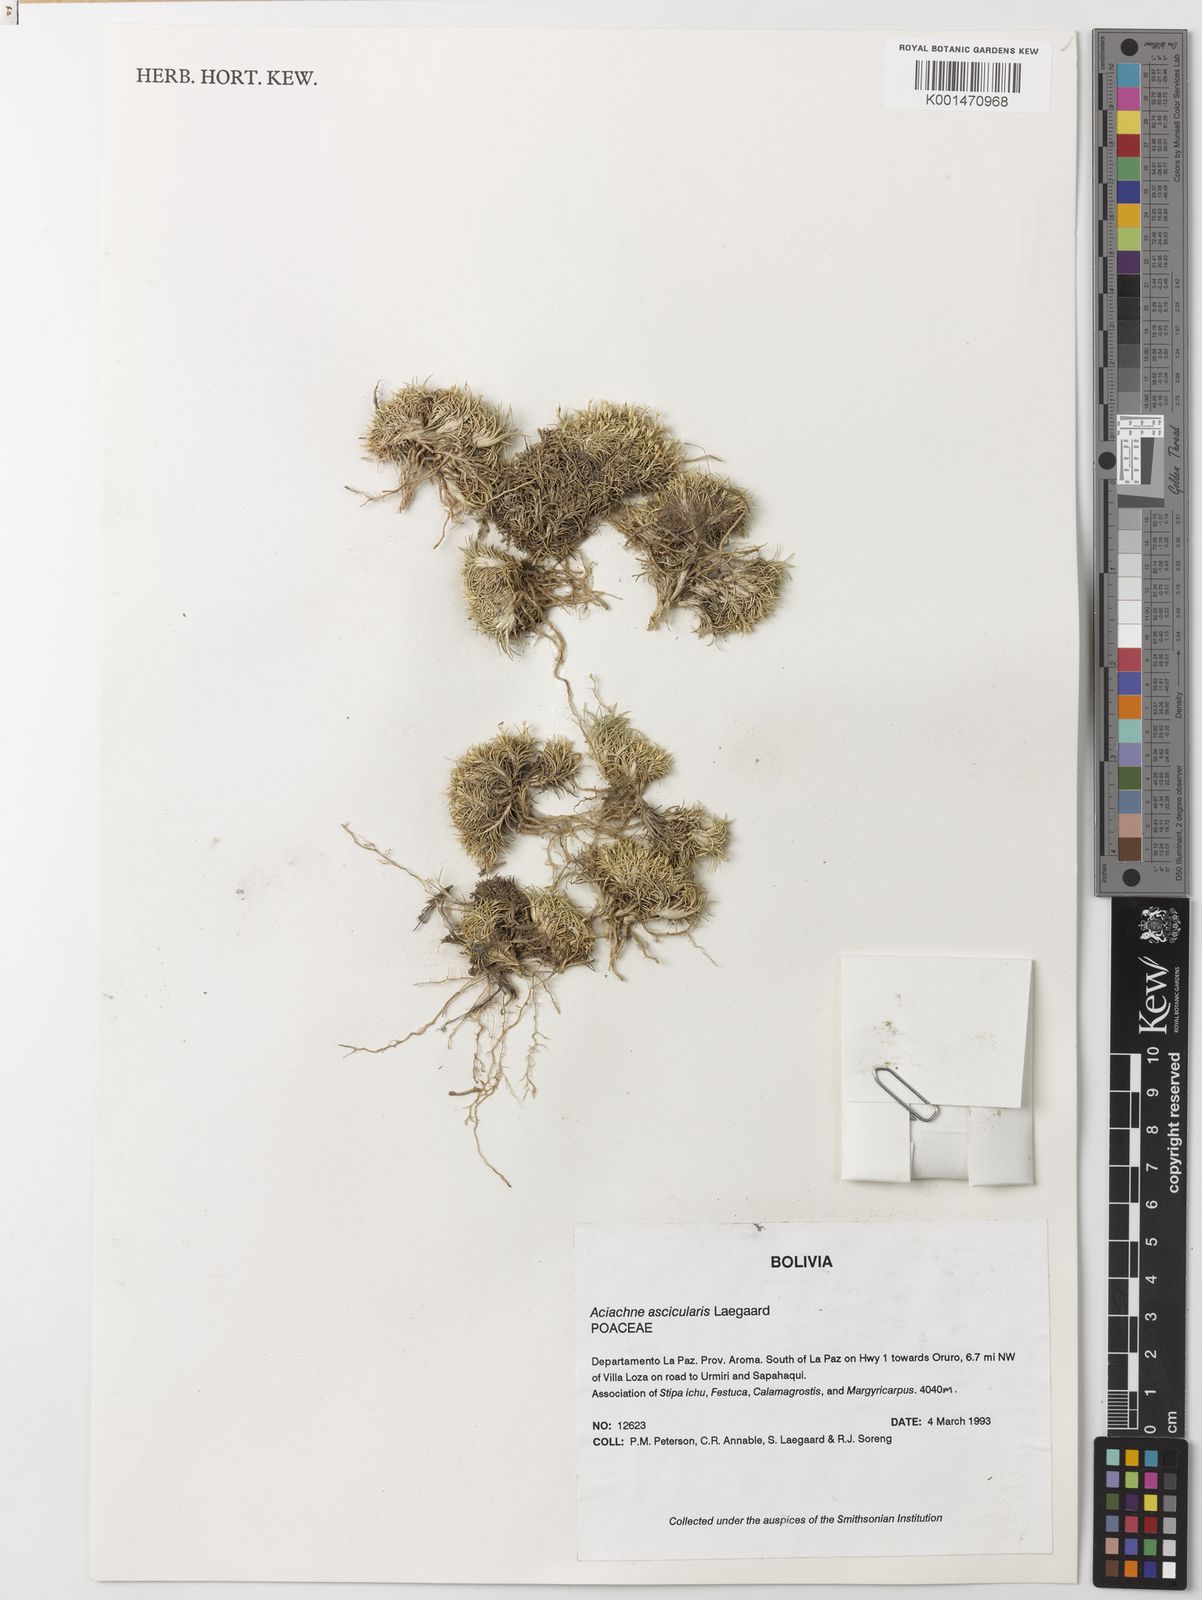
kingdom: Plantae
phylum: Tracheophyta
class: Liliopsida
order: Poales
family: Poaceae
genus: Aciachne
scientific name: Aciachne acicularis
